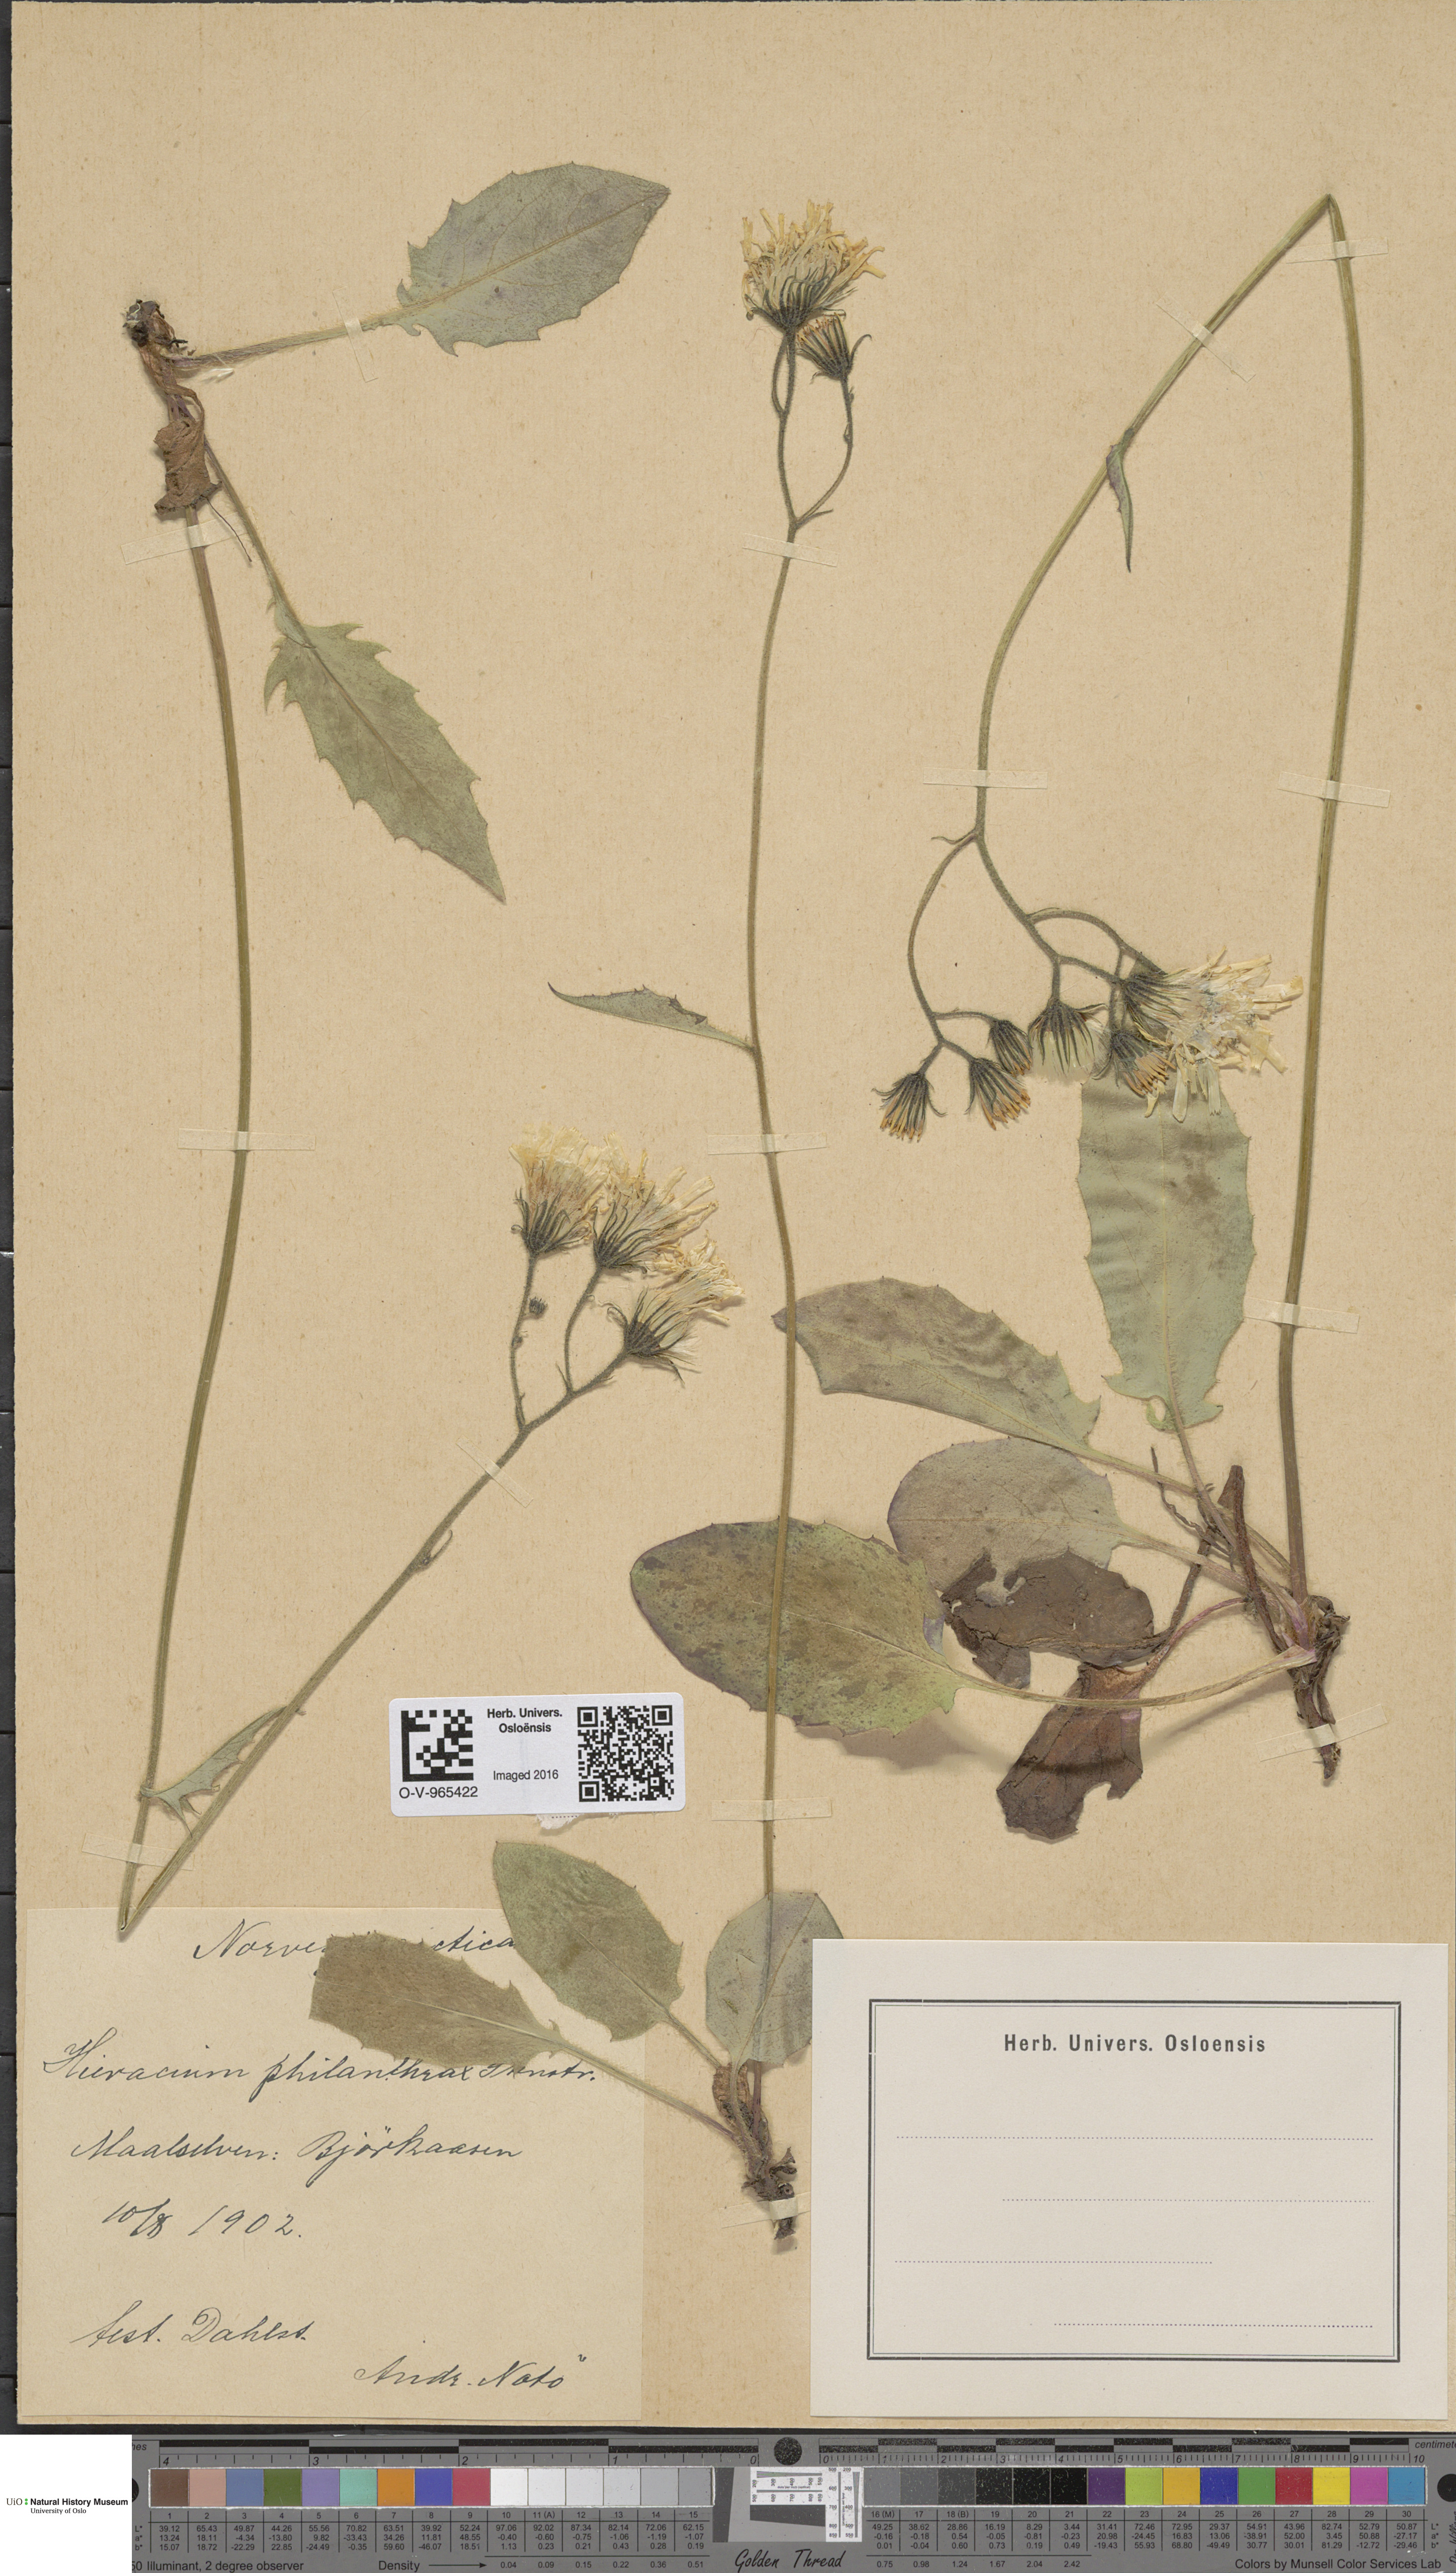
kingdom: Plantae
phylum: Tracheophyta
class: Magnoliopsida
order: Asterales
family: Asteraceae
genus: Hieracium
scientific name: Hieracium philanthrax
